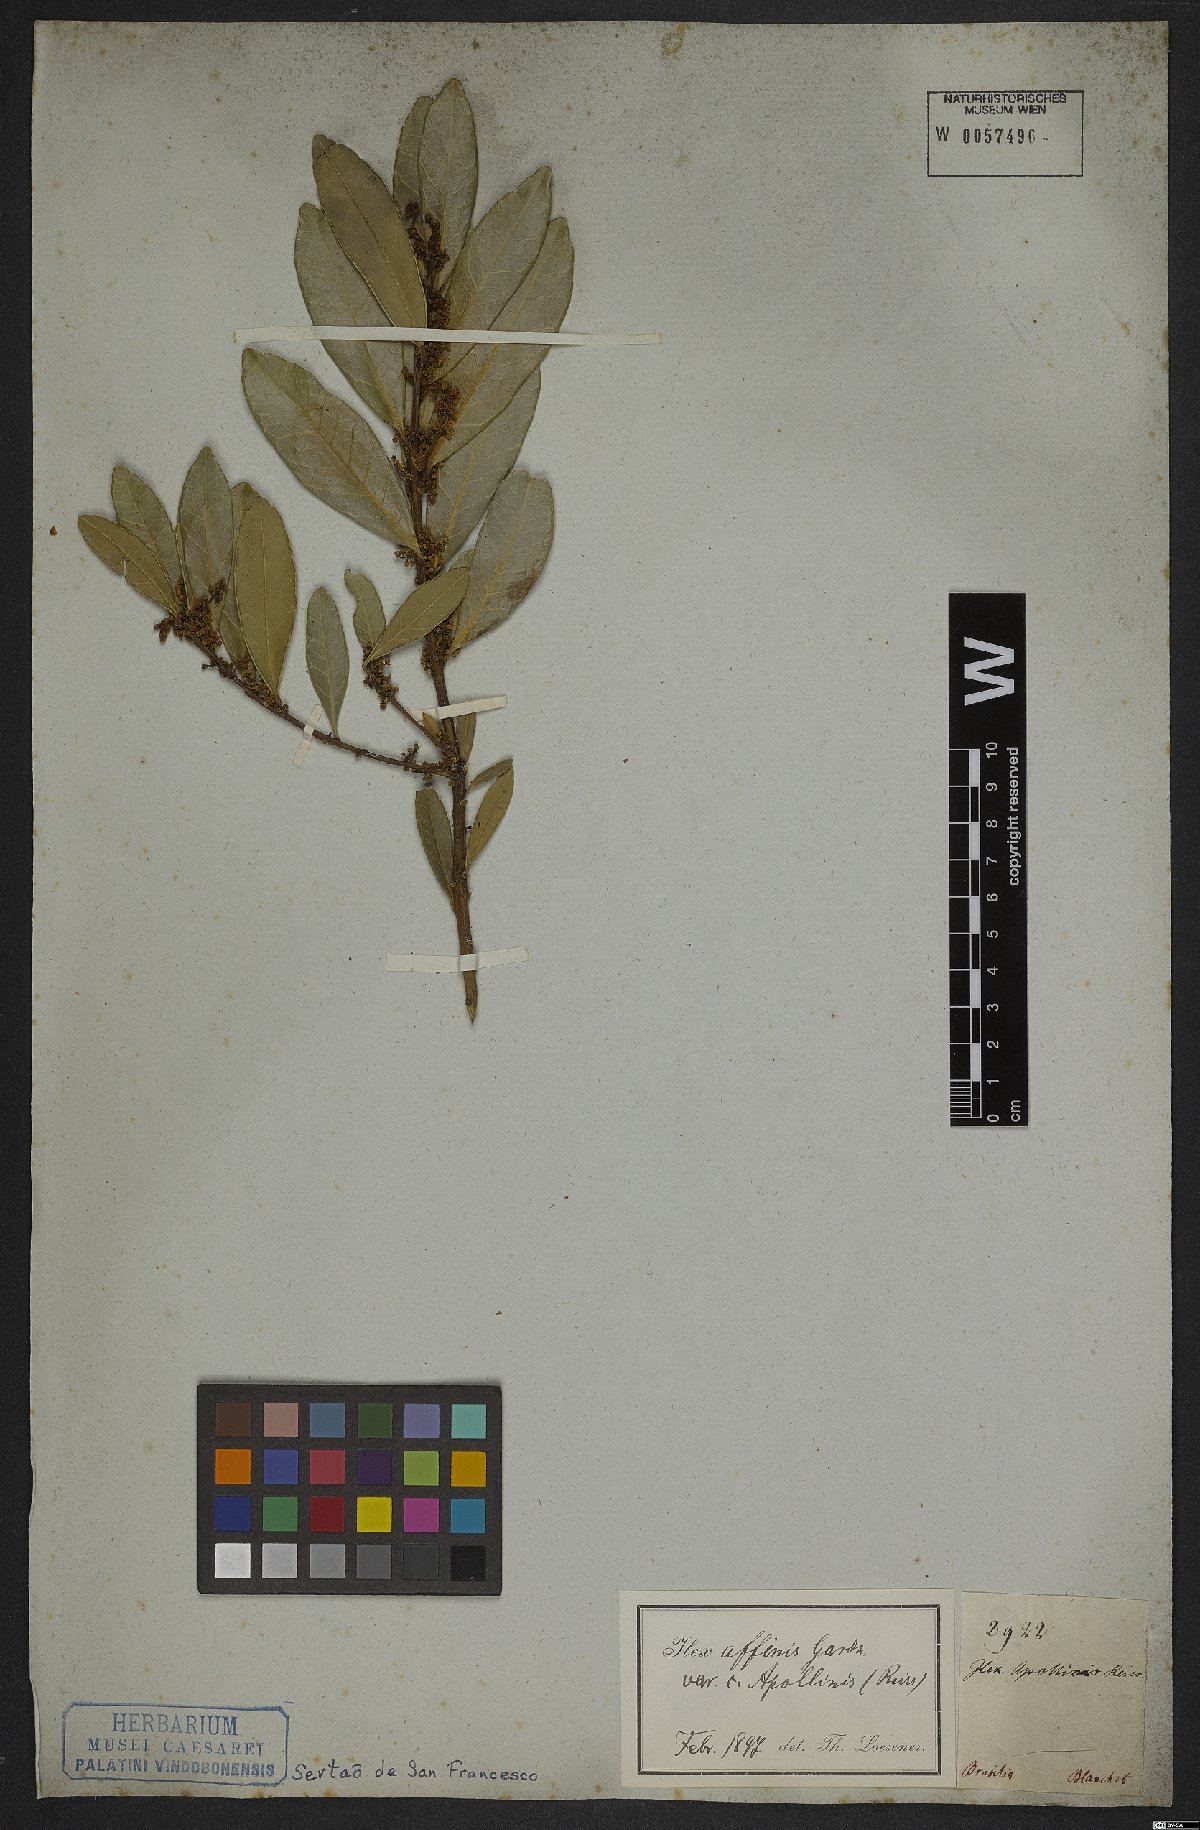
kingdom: Plantae
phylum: Tracheophyta
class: Magnoliopsida
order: Aquifoliales
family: Aquifoliaceae
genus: Ilex
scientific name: Ilex affinis
